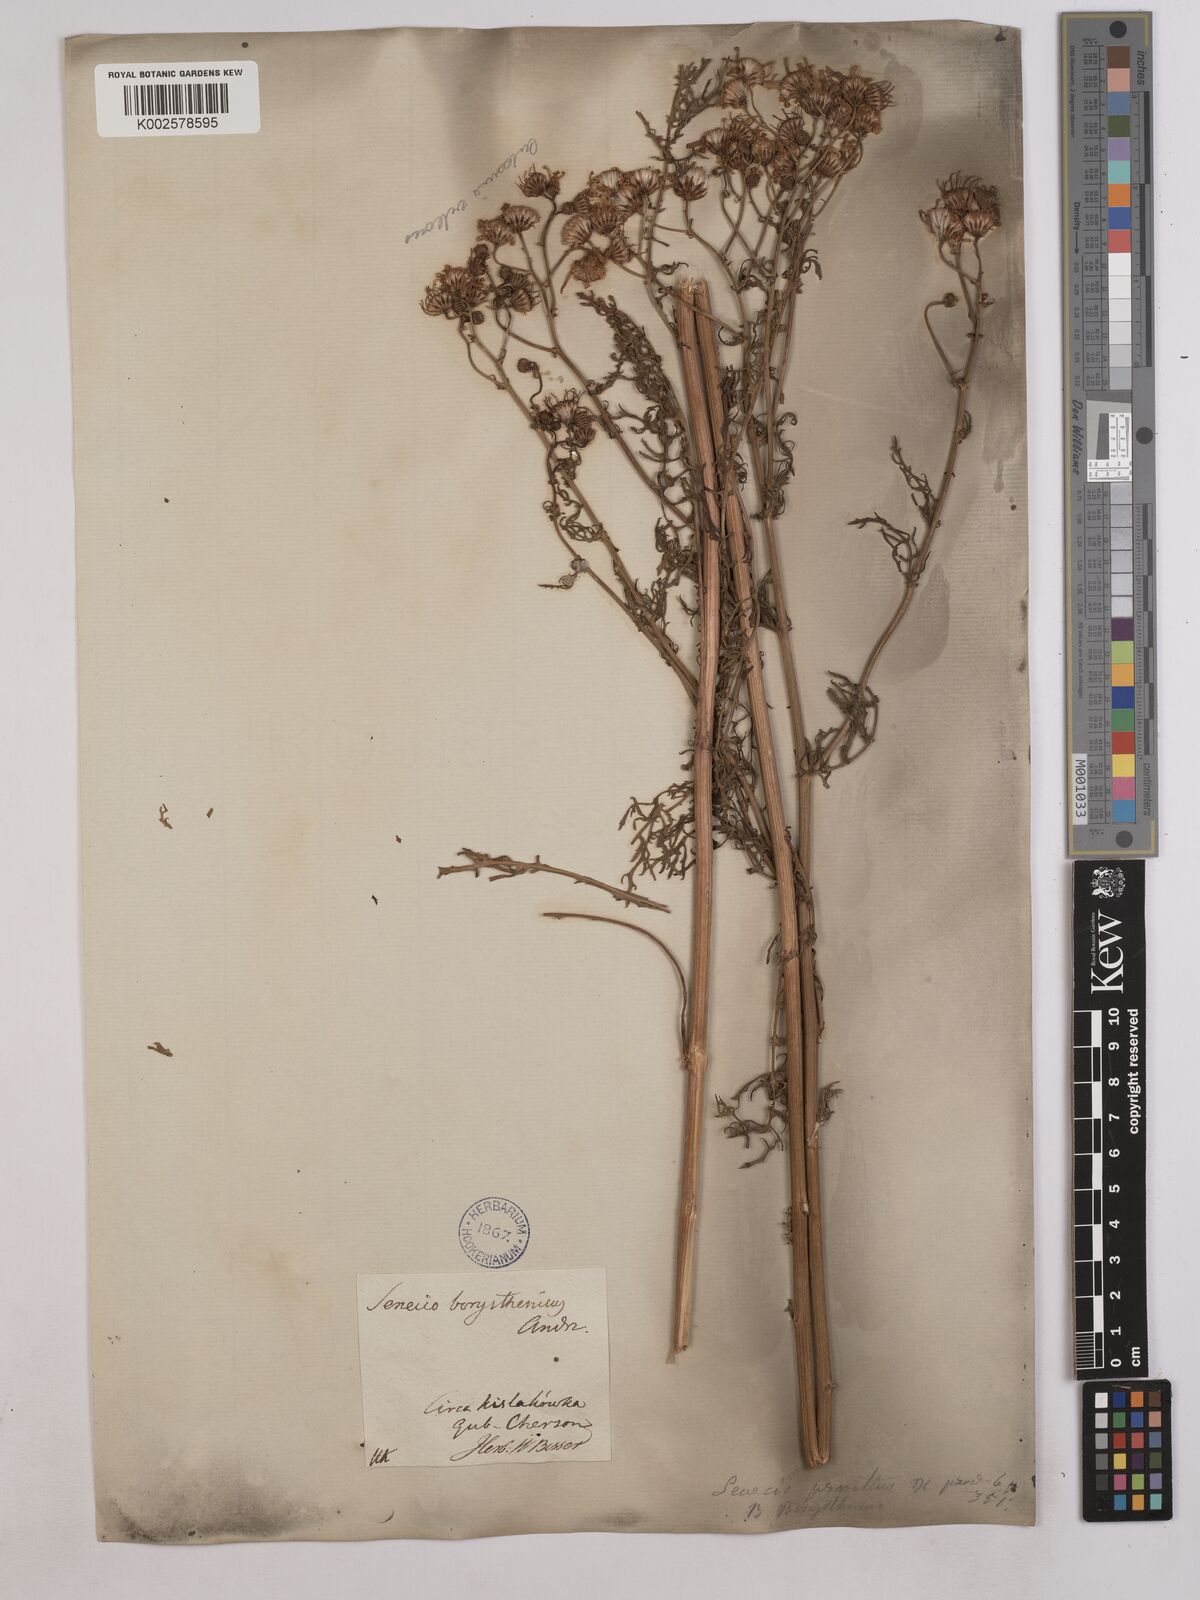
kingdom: Plantae
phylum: Tracheophyta
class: Magnoliopsida
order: Asterales
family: Asteraceae
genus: Jacobaea
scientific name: Jacobaea vulgaris
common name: Stinking willie
